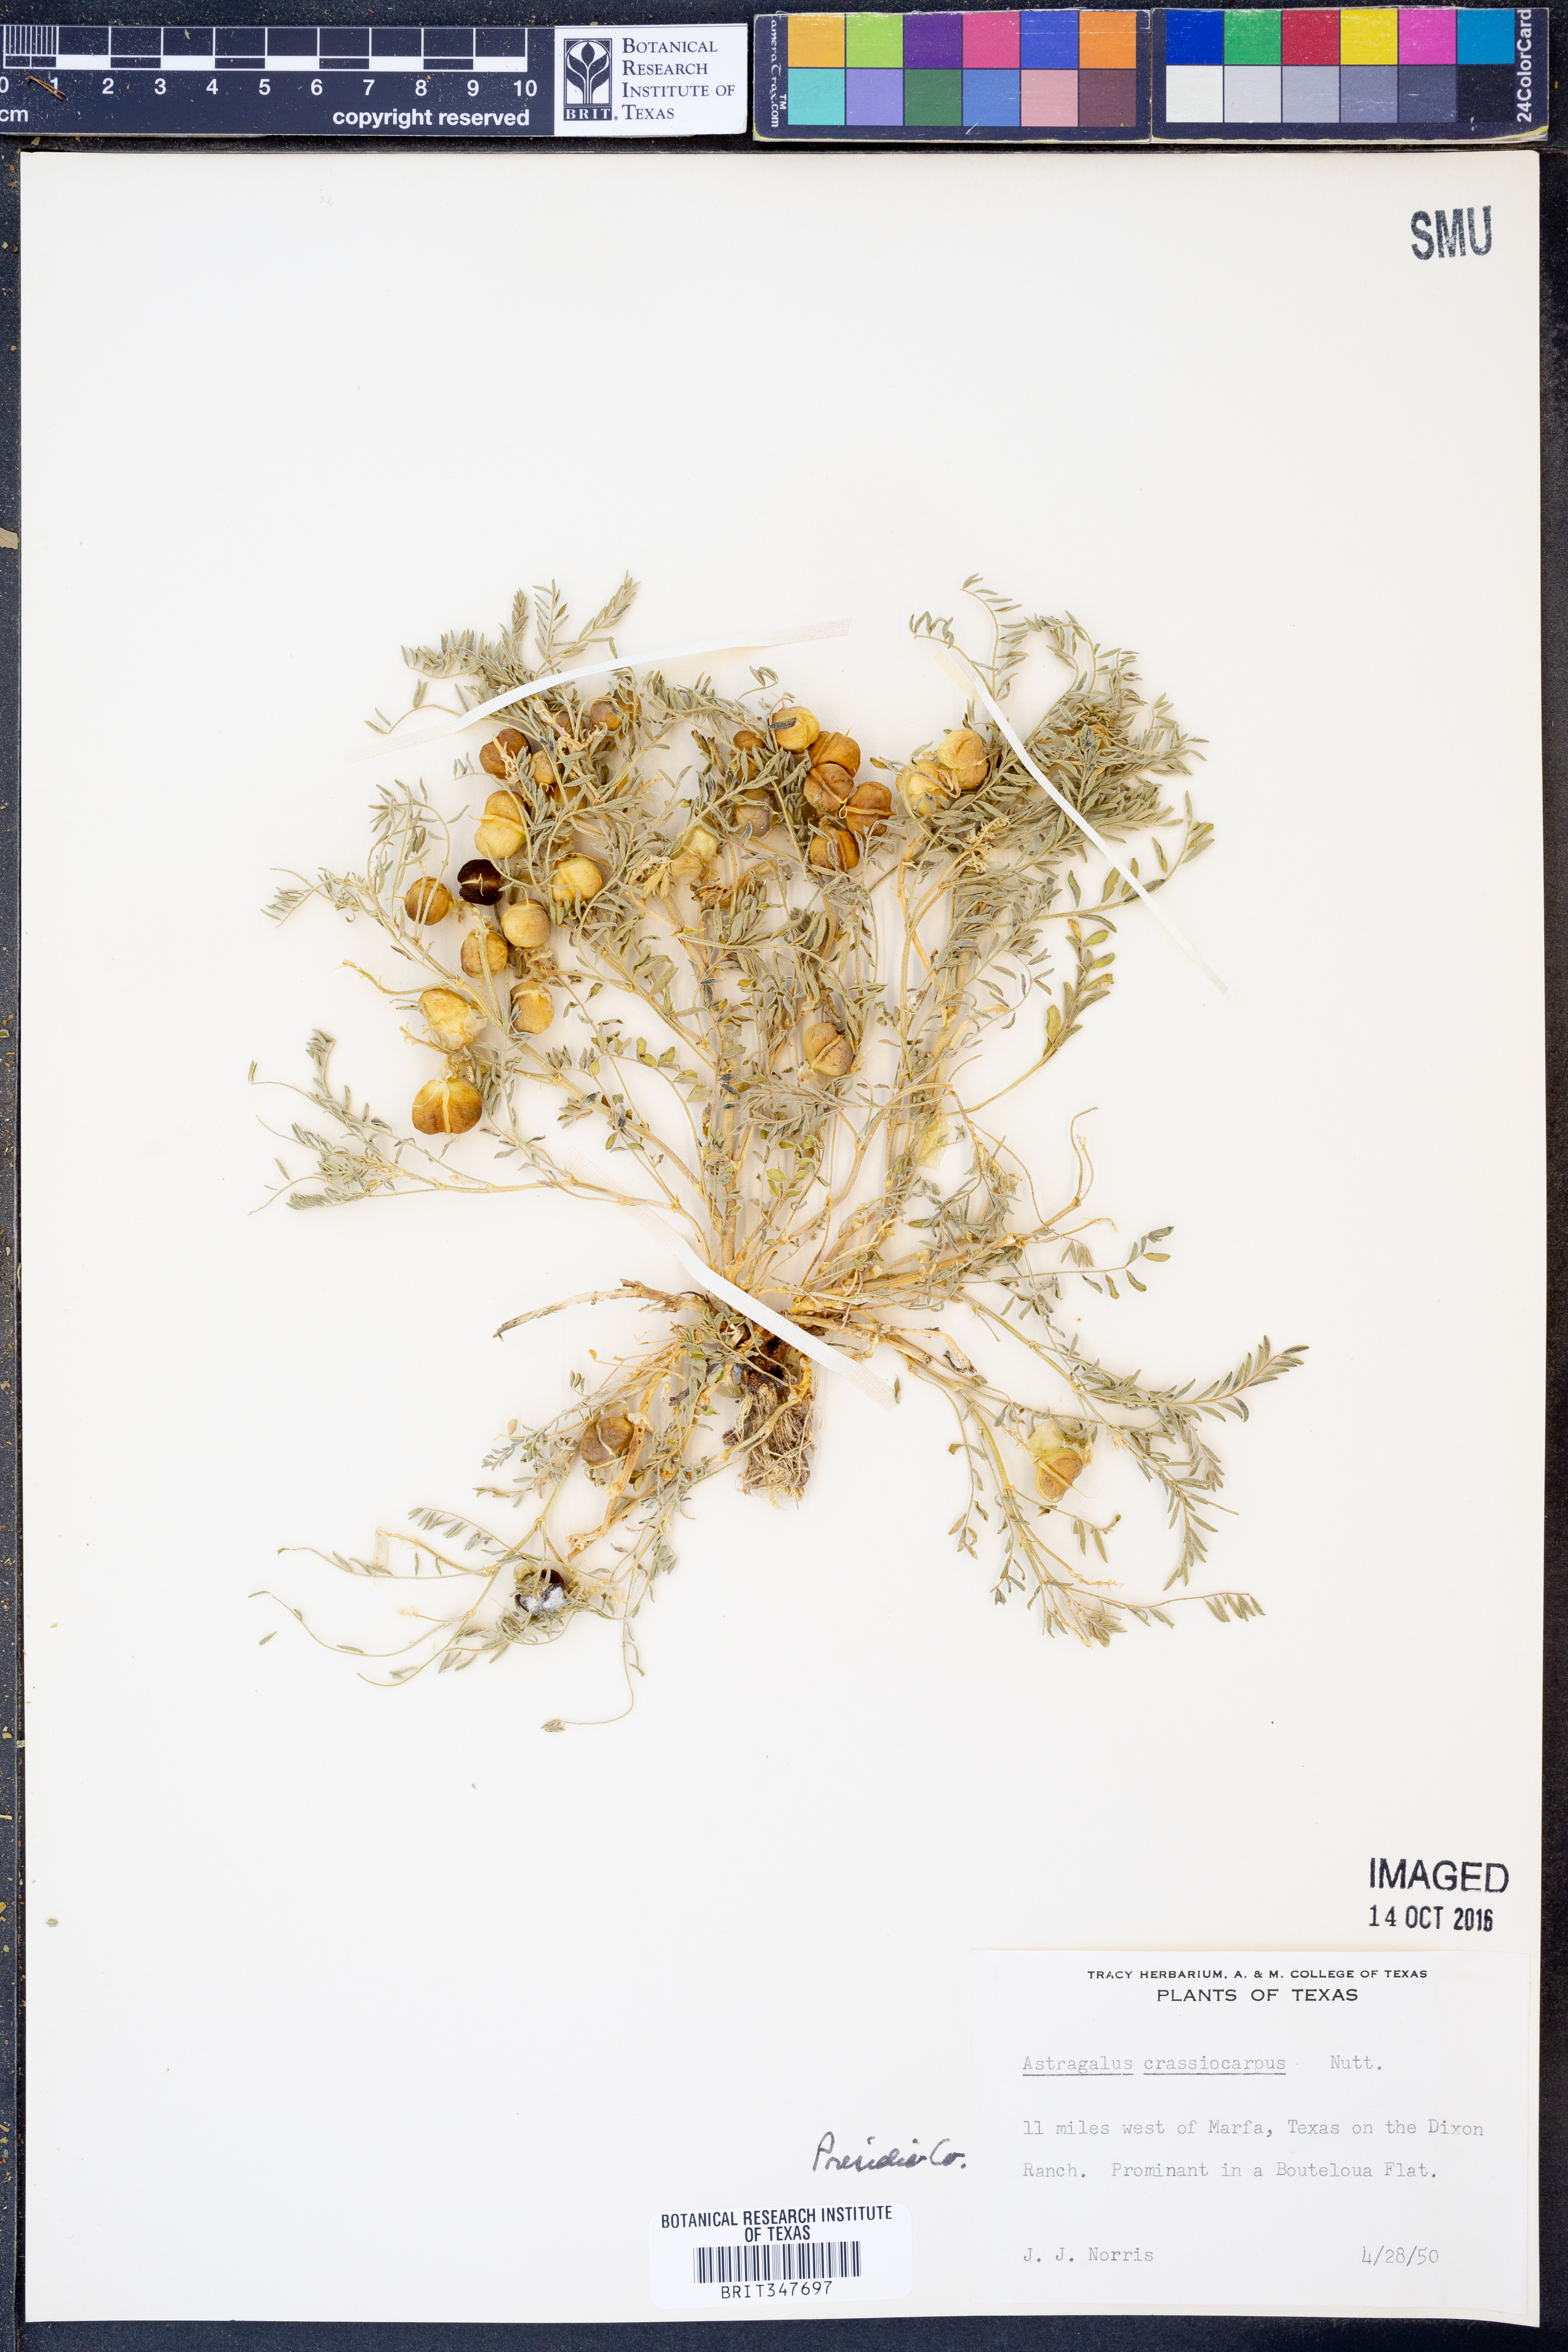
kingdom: Plantae
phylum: Tracheophyta
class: Magnoliopsida
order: Fabales
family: Fabaceae
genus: Astragalus
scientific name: Astragalus crassicarpus
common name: Ground-plum milk-vetch
